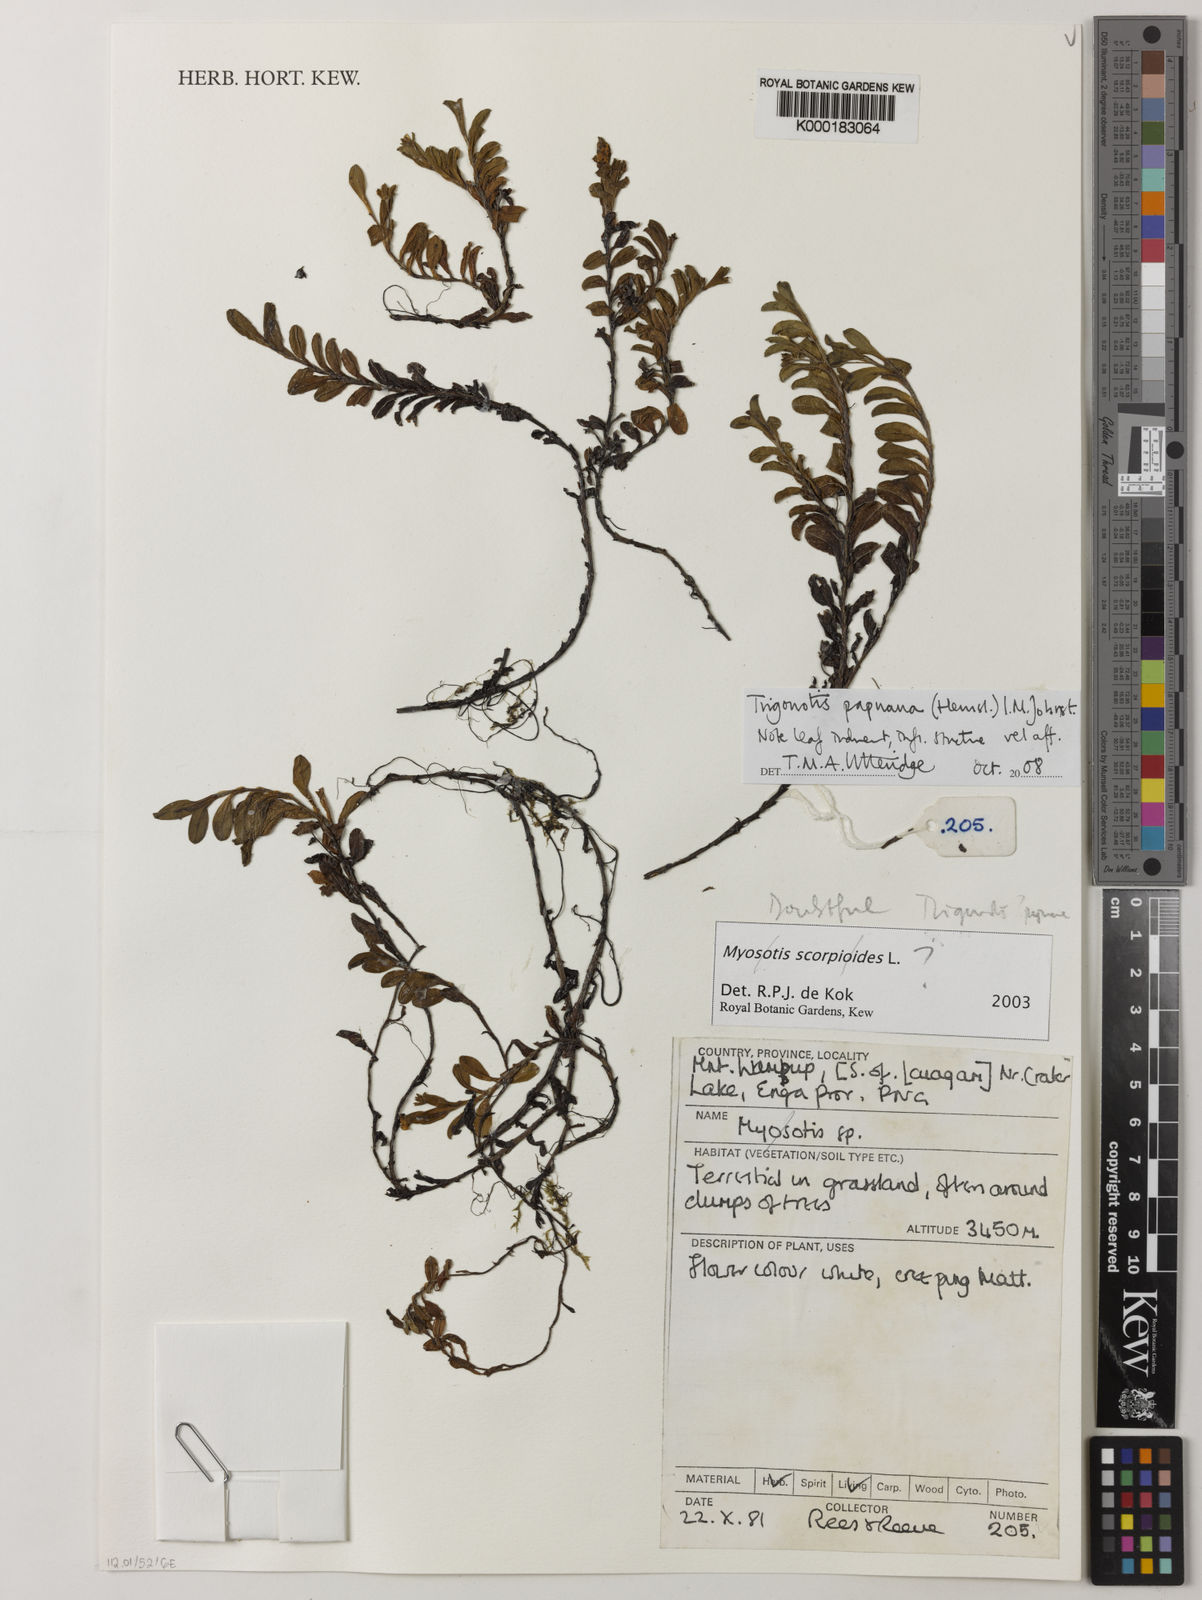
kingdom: Plantae
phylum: Tracheophyta
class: Magnoliopsida
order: Boraginales
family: Boraginaceae
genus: Trigonotis
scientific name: Trigonotis papuana
